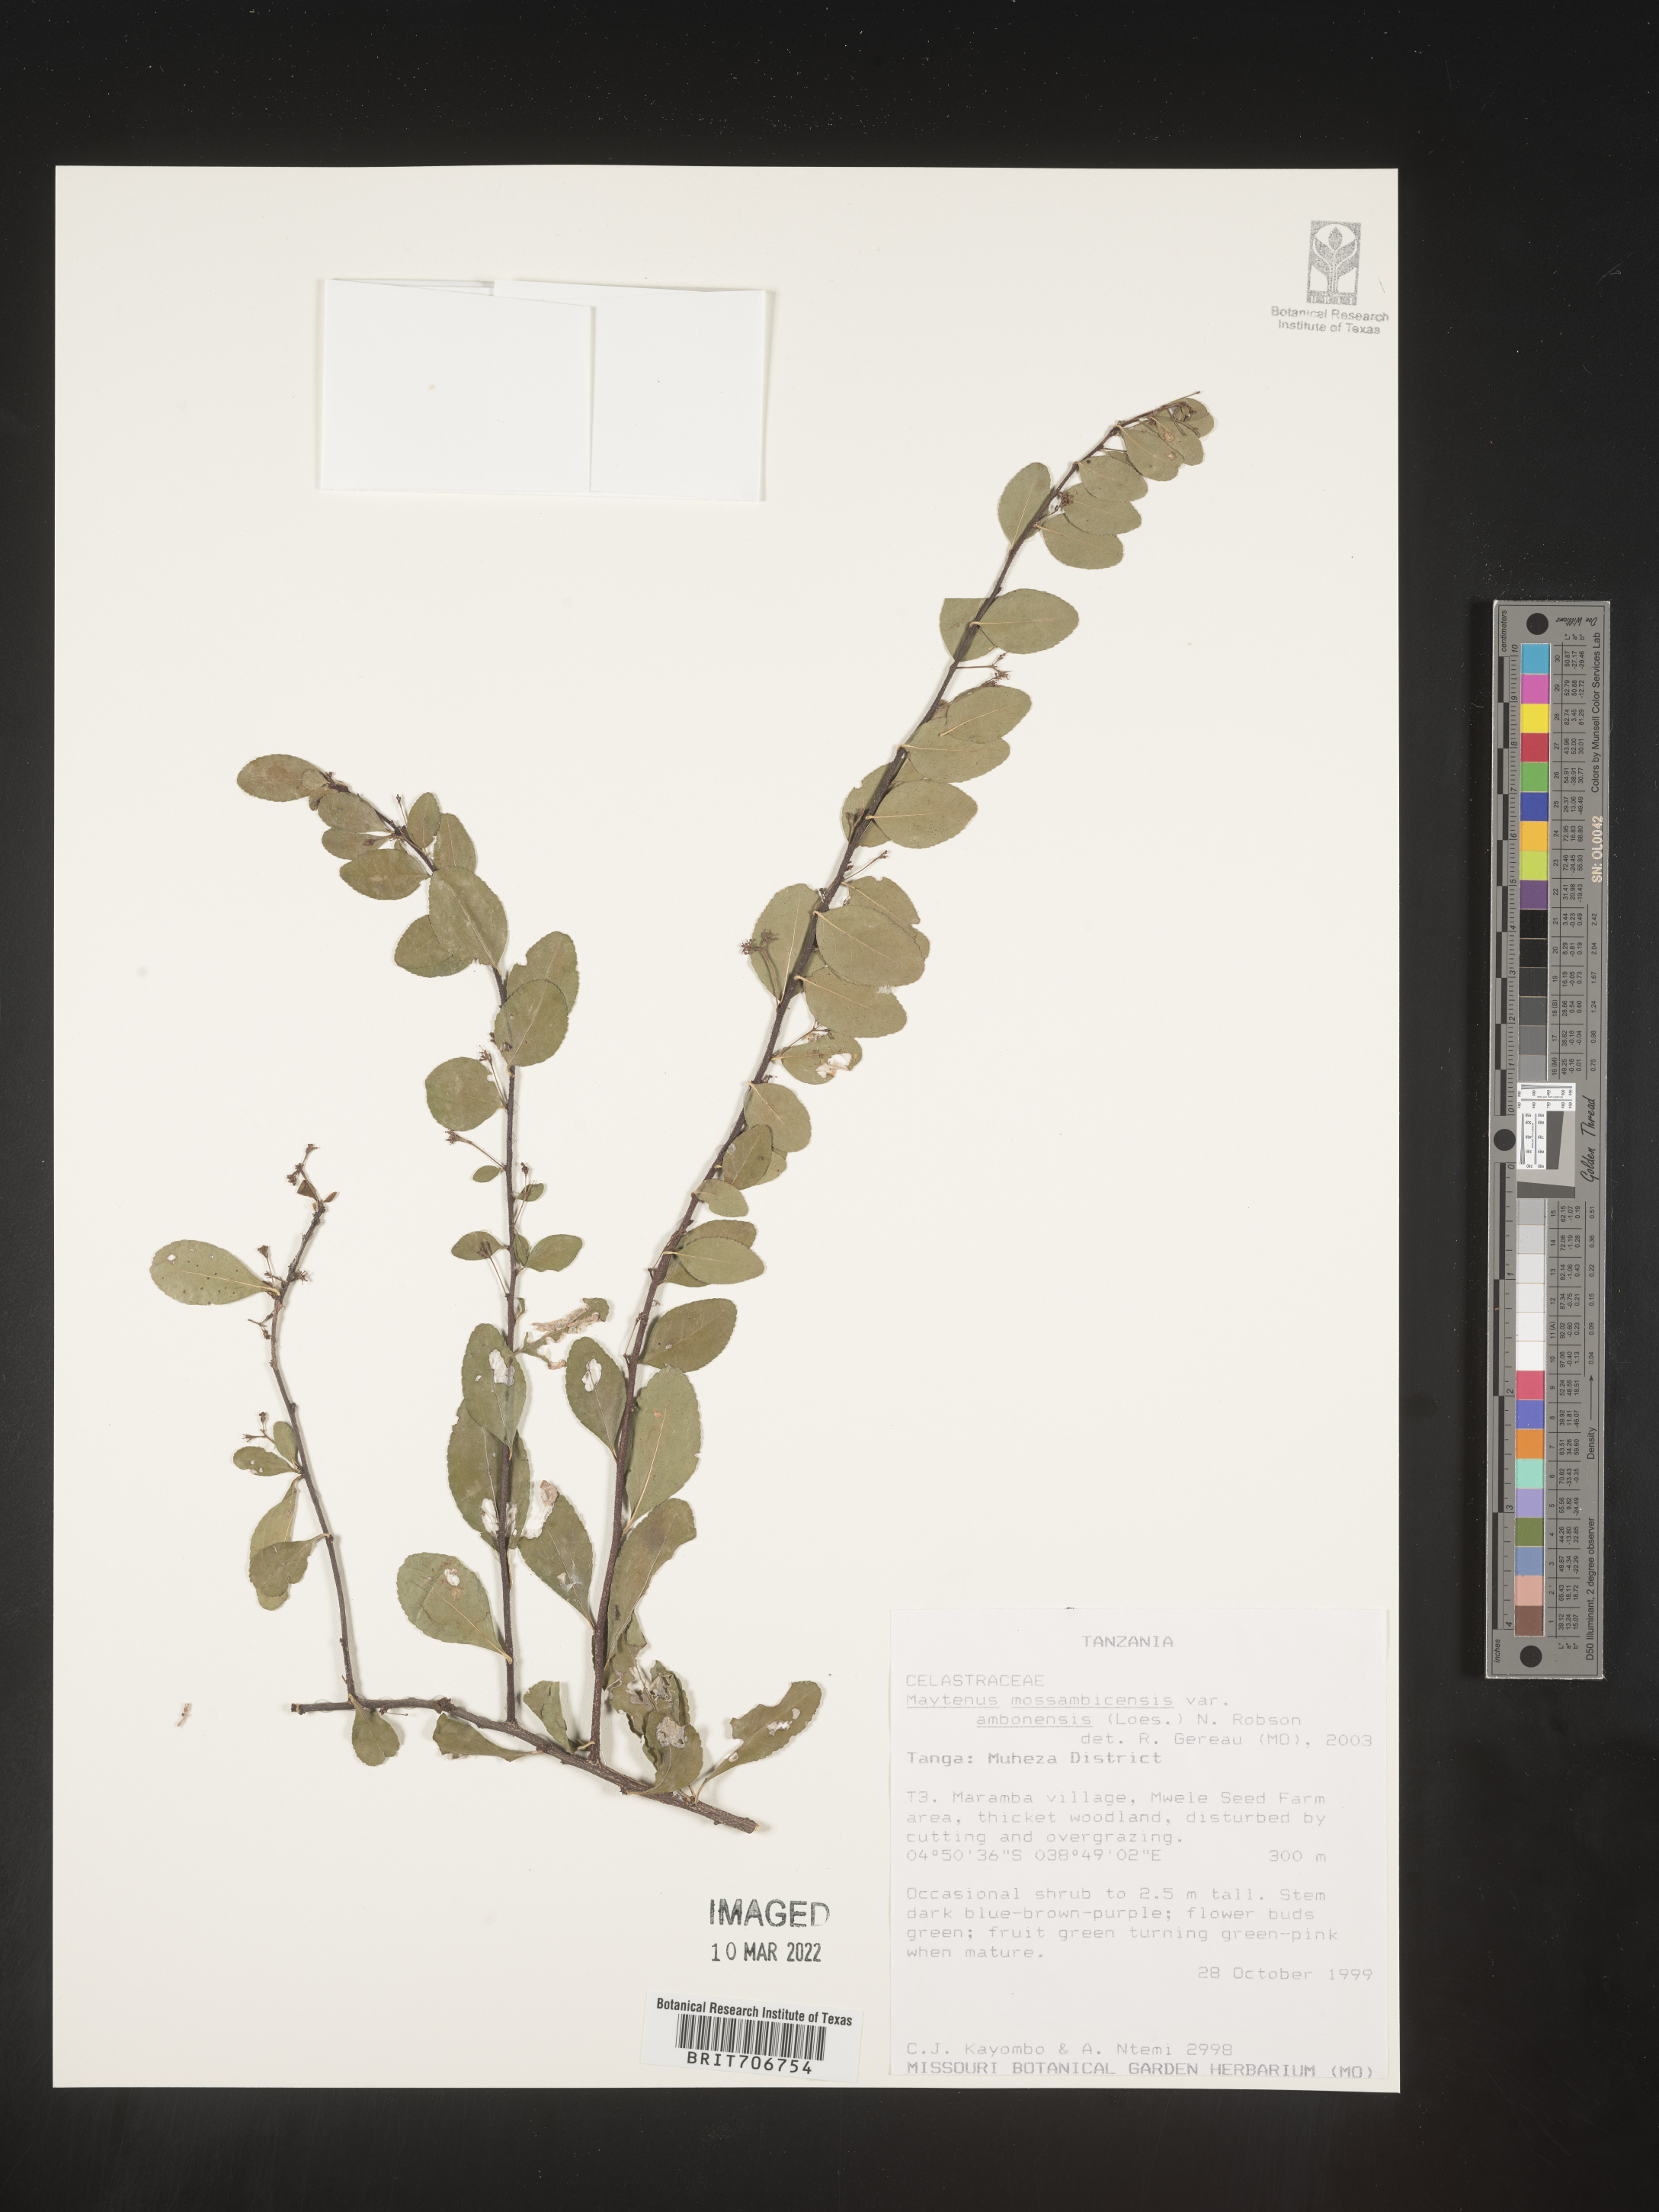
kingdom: Plantae
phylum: Tracheophyta
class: Magnoliopsida
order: Celastrales
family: Celastraceae
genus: Maytenus
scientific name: Maytenus
